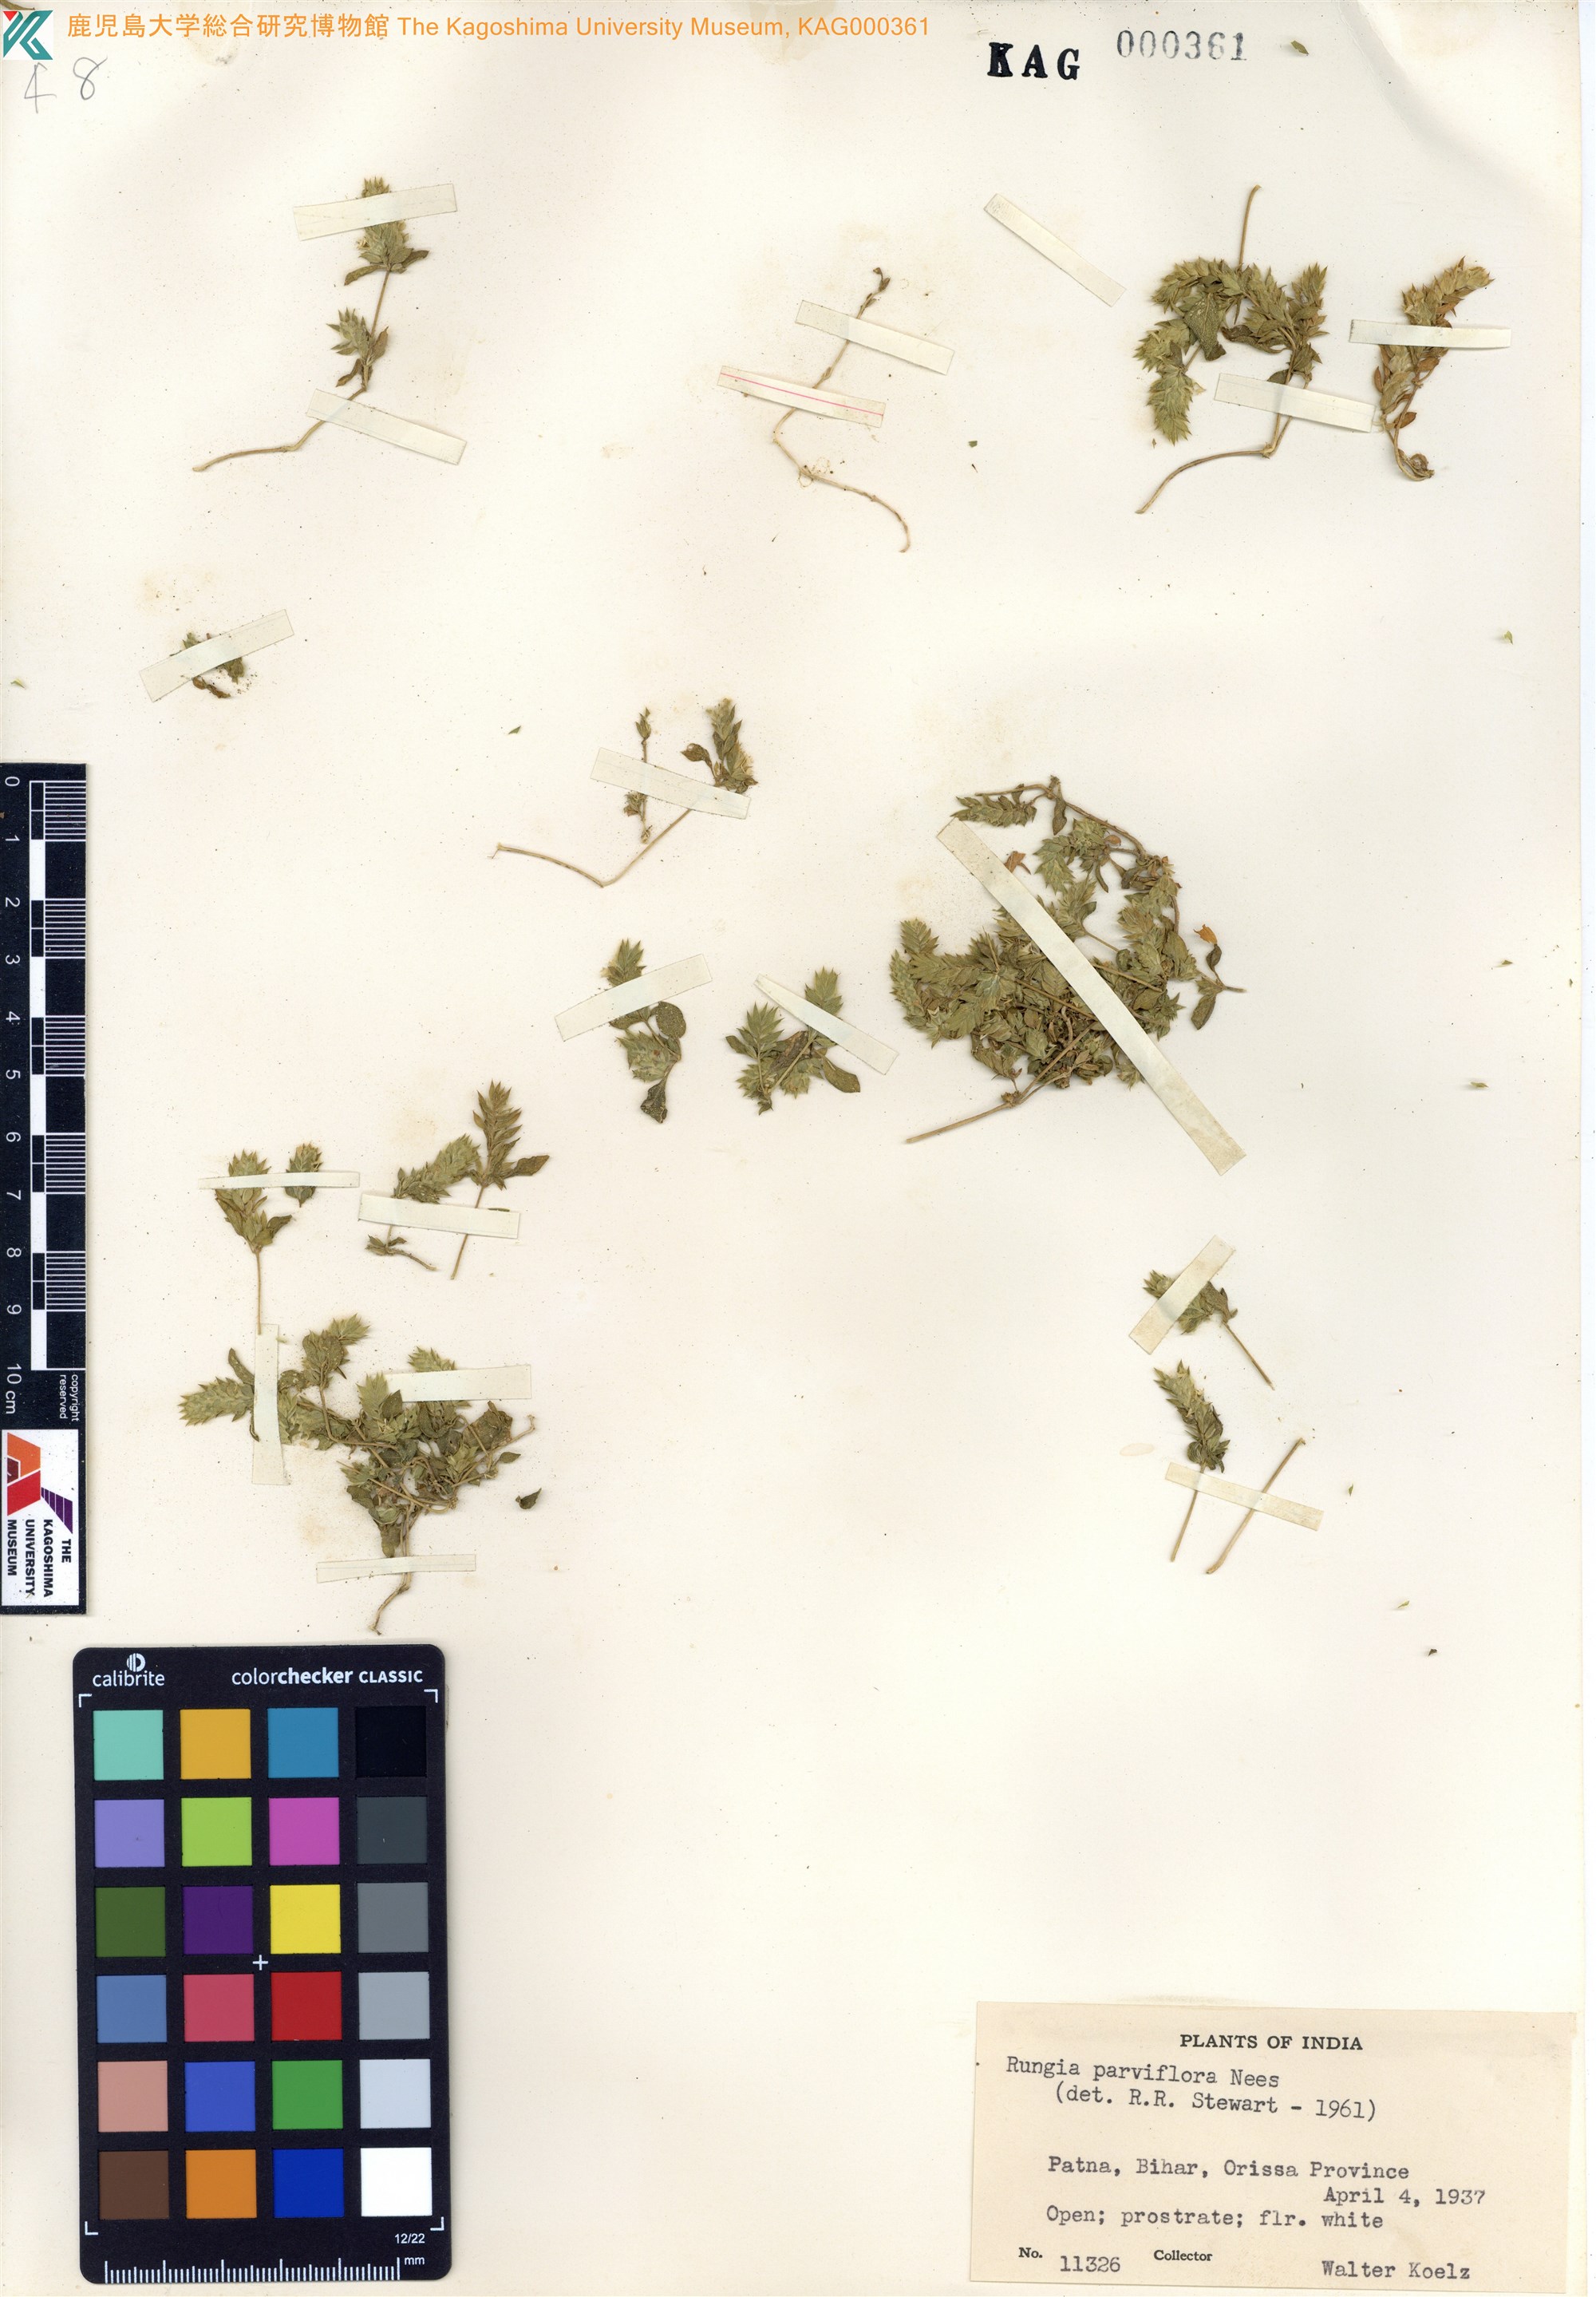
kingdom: Plantae
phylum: Tracheophyta
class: Magnoliopsida
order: Lamiales
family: Acanthaceae
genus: Rungia
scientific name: Rungia parviflora
